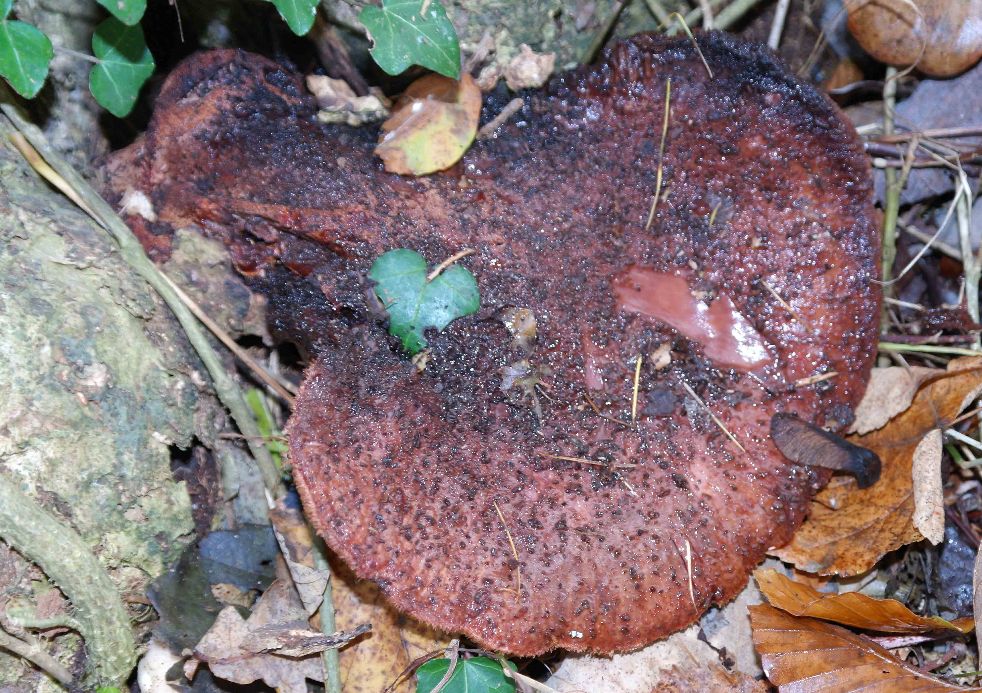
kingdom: Fungi
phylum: Basidiomycota
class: Agaricomycetes
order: Agaricales
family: Fistulinaceae
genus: Fistulina
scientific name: Fistulina hepatica
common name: oksetunge
